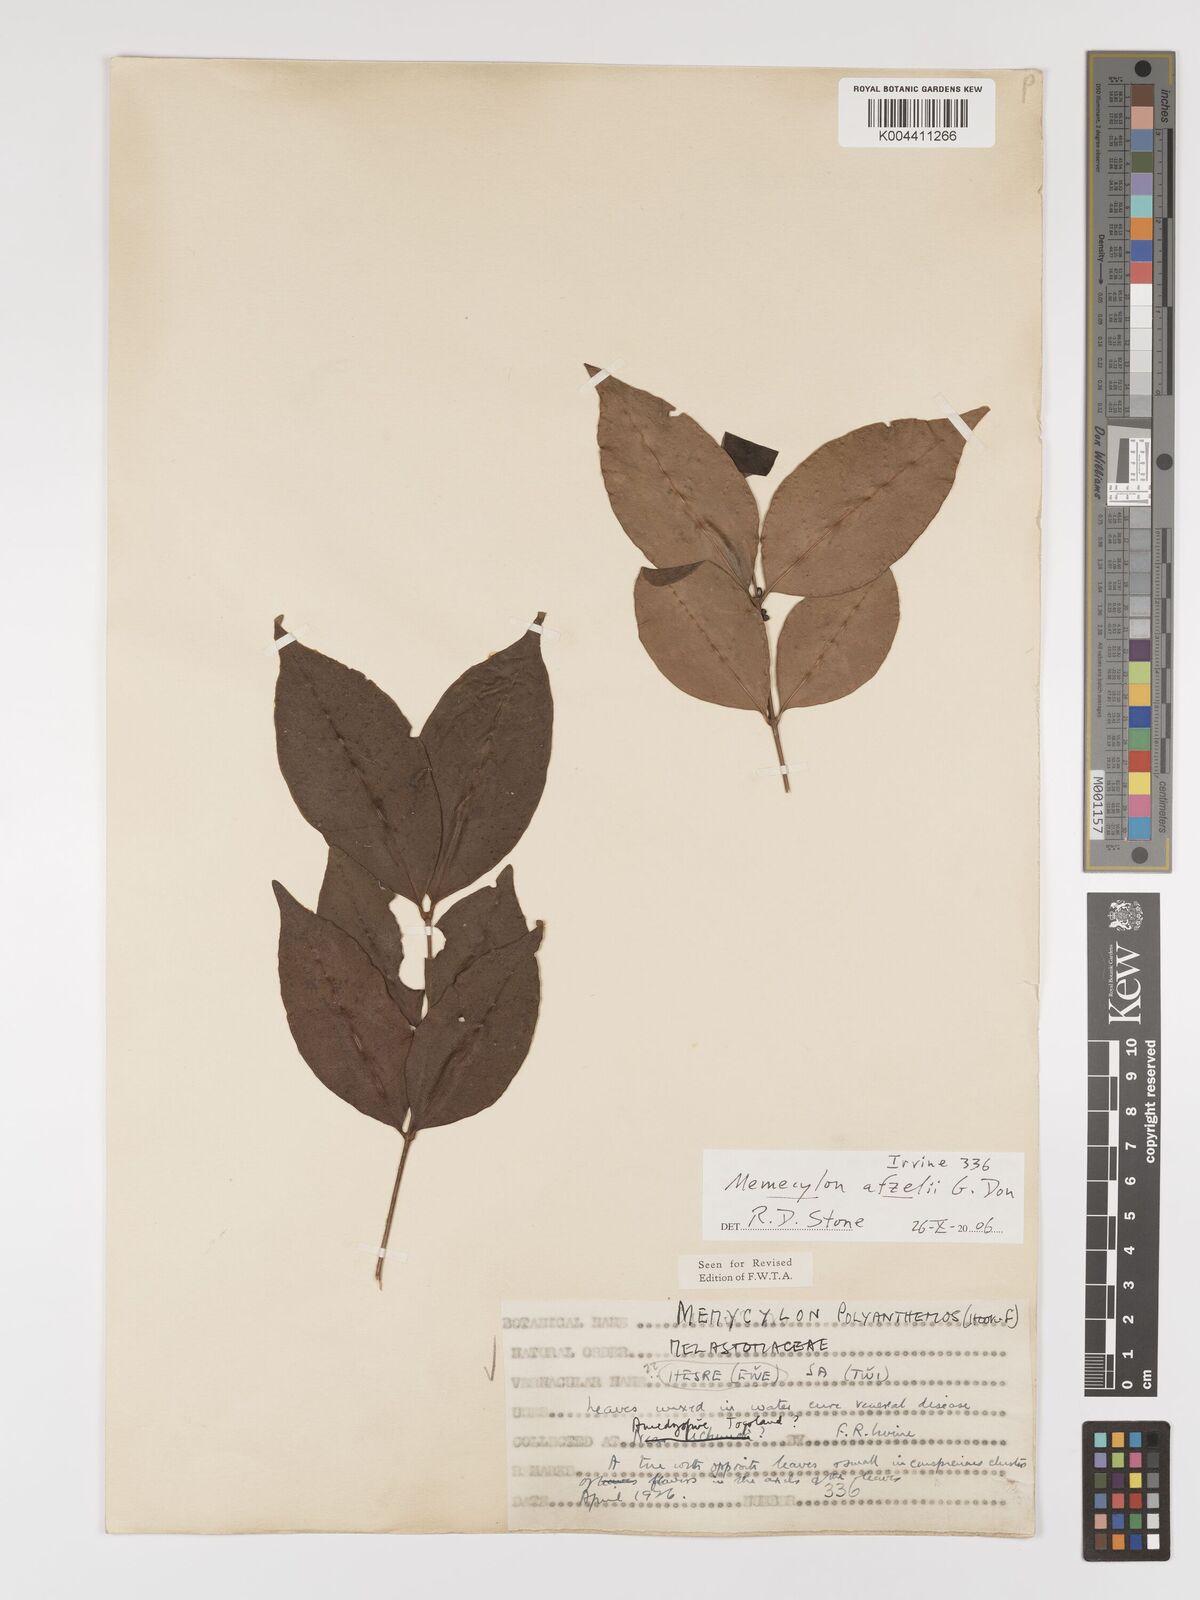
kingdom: Plantae
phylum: Tracheophyta
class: Magnoliopsida
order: Myrtales
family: Melastomataceae
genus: Memecylon
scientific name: Memecylon afzelii
